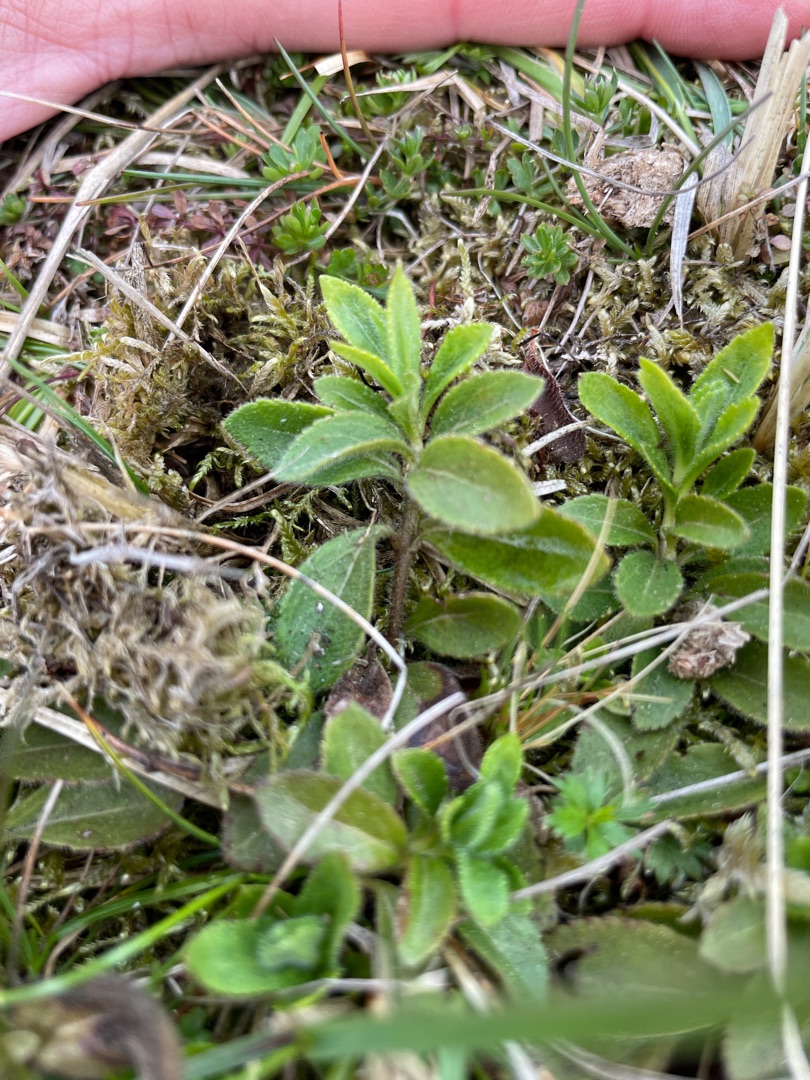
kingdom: Plantae
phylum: Tracheophyta
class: Magnoliopsida
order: Lamiales
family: Plantaginaceae
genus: Veronica
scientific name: Veronica officinalis
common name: Læge-ærenpris
